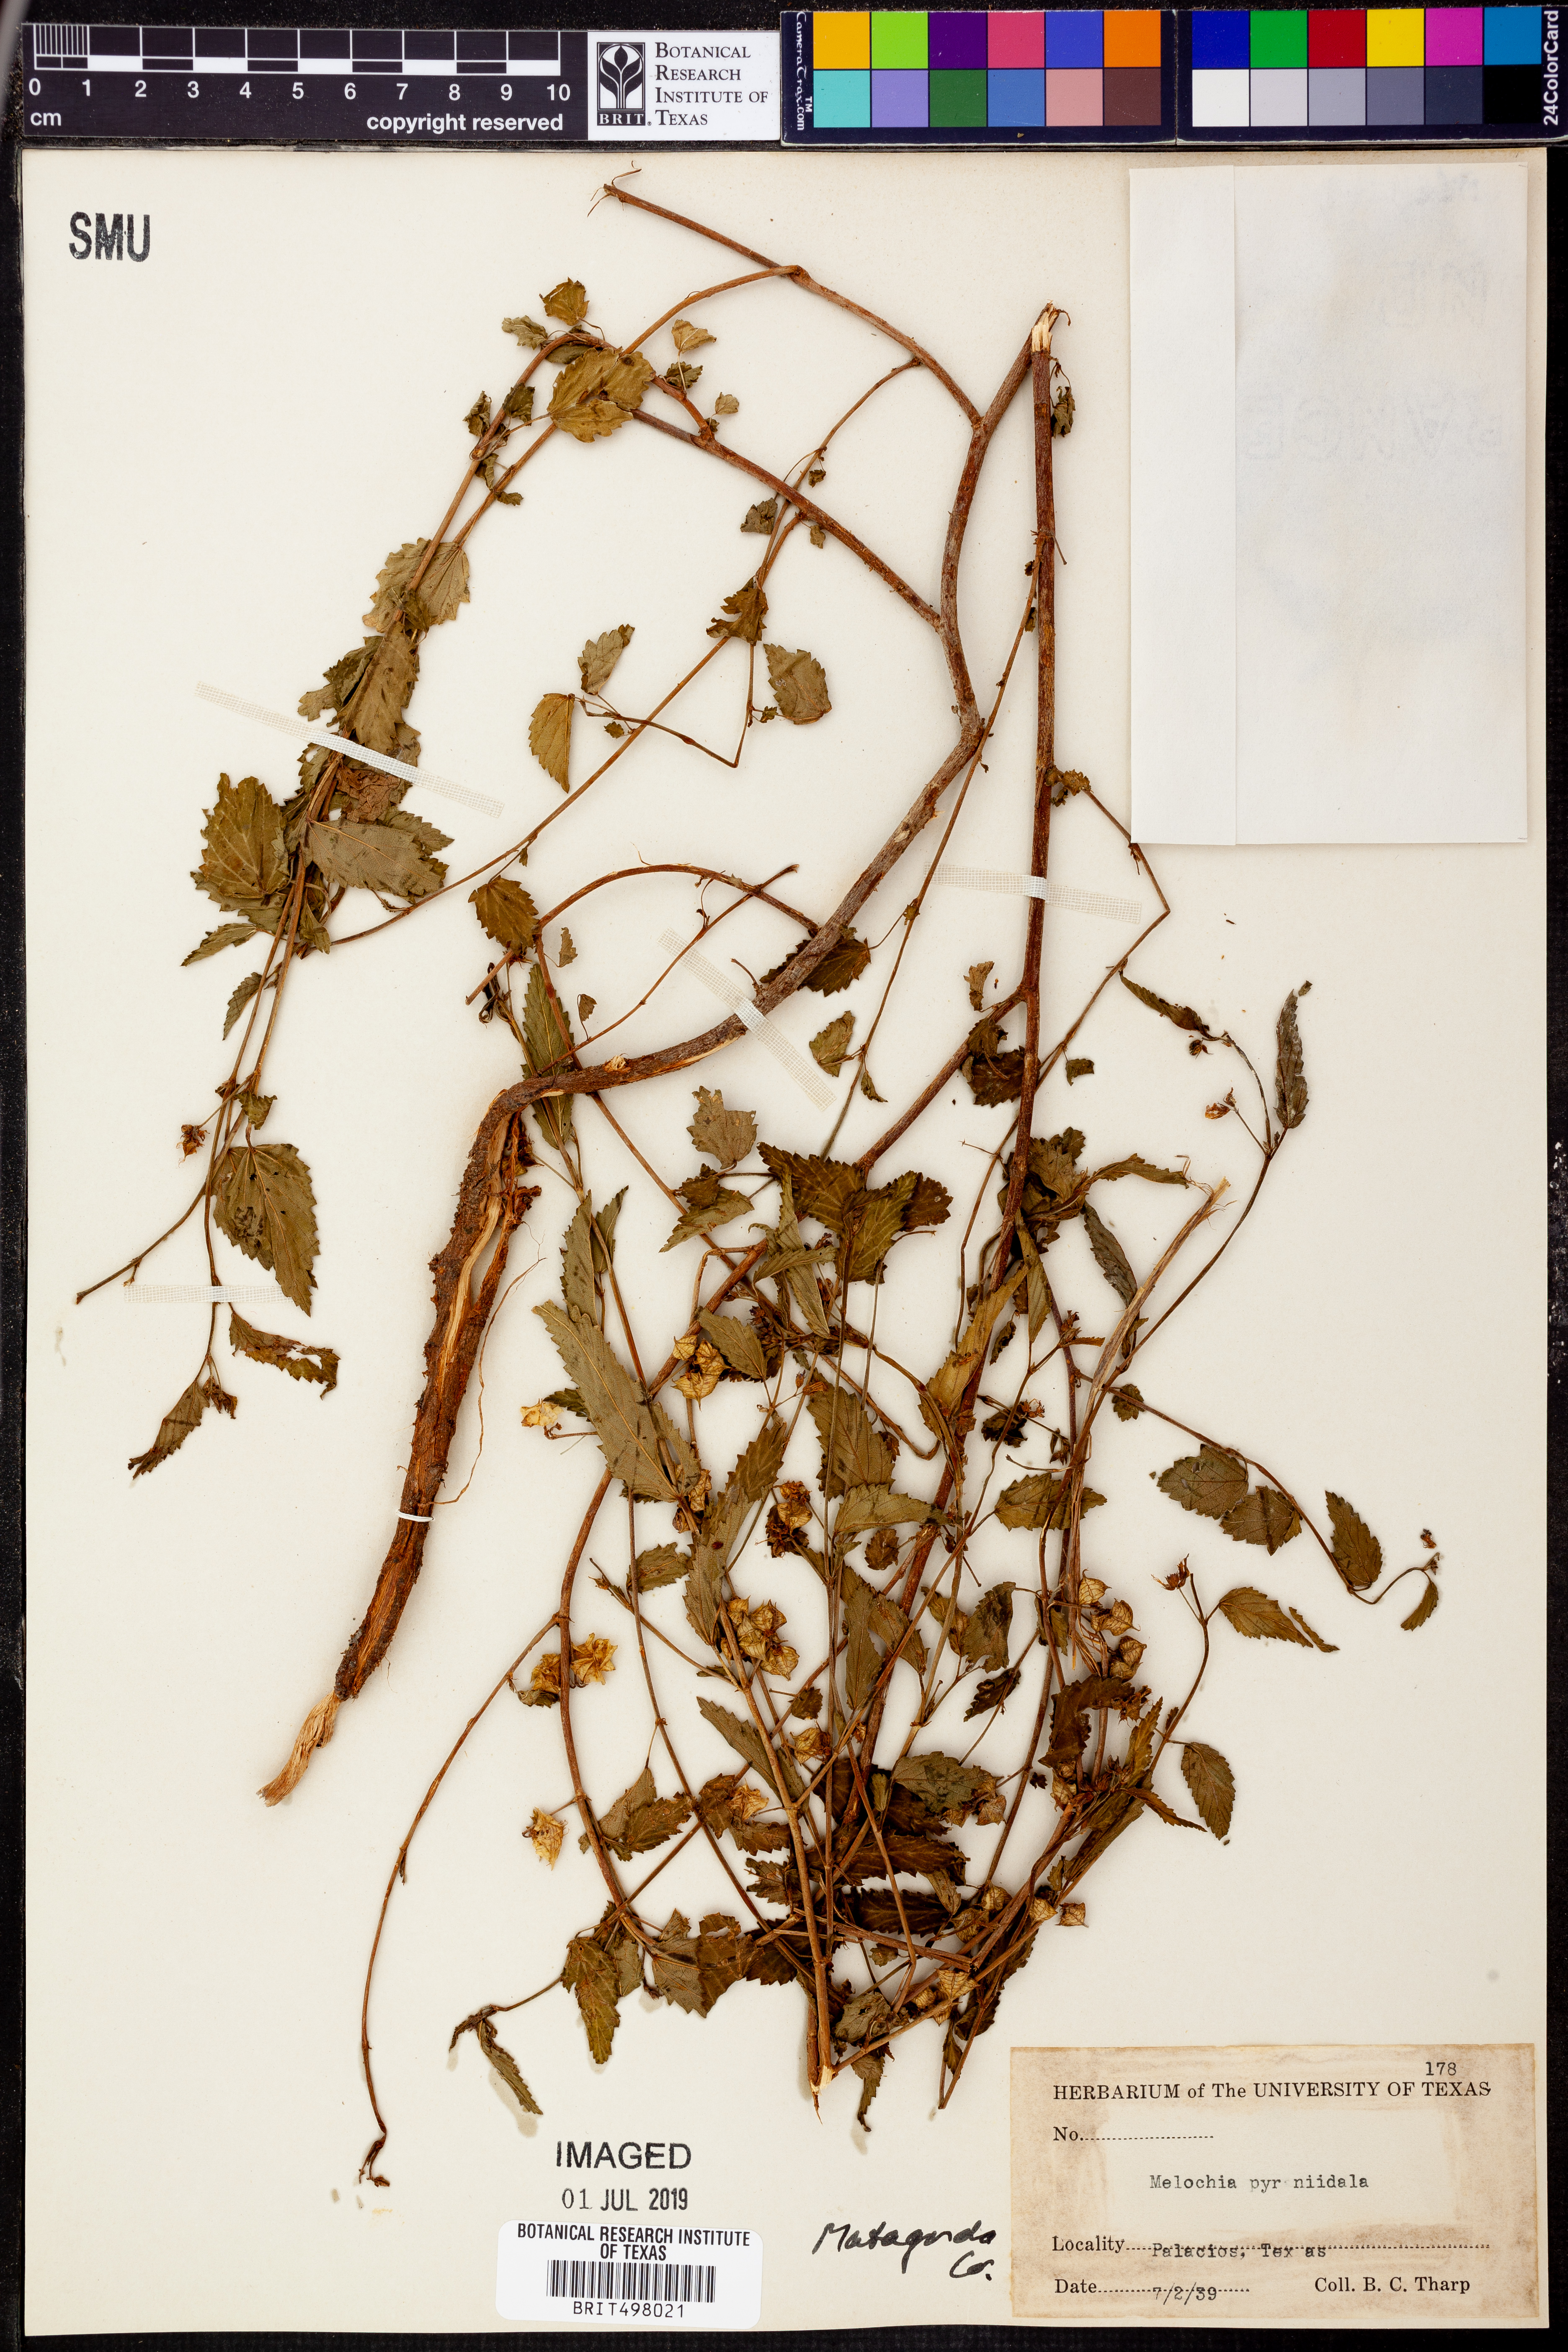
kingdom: Plantae
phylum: Tracheophyta
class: Magnoliopsida
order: Malvales
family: Malvaceae
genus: Melochia
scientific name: Melochia pyramidata
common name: Pyramidflower
